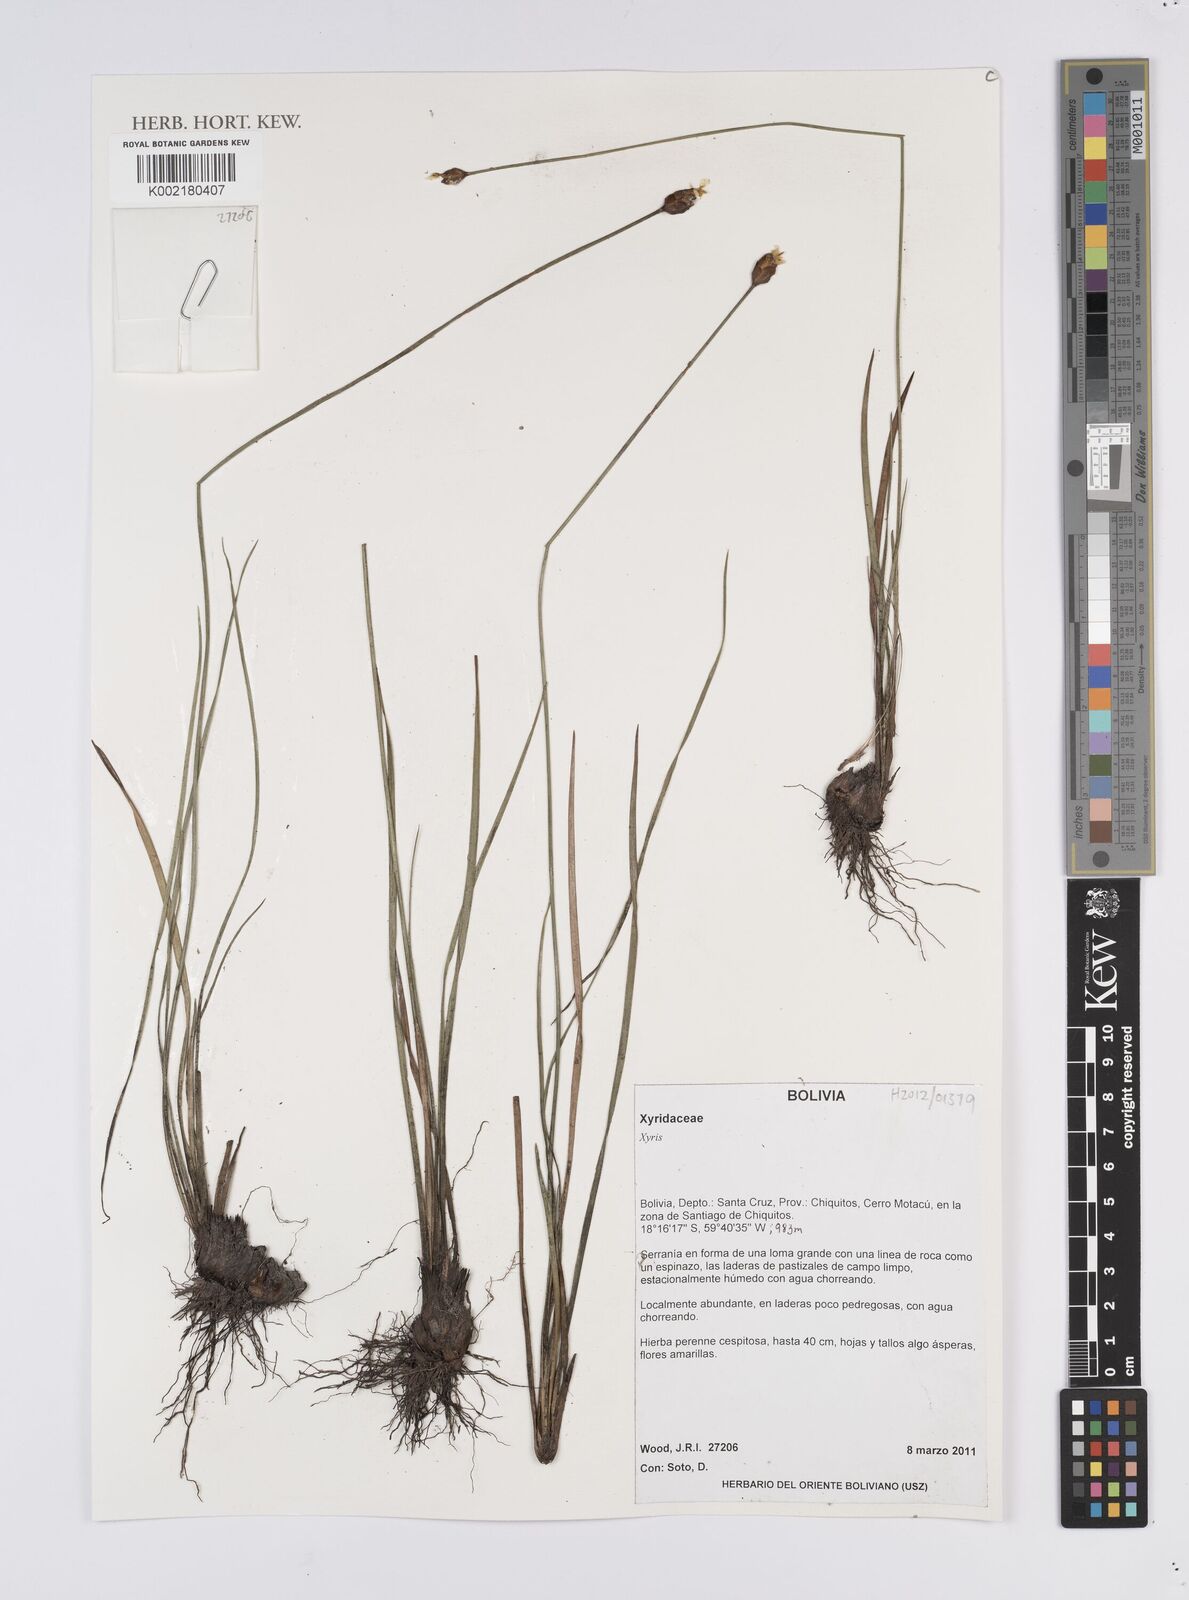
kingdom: Plantae
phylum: Tracheophyta
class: Liliopsida
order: Poales
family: Xyridaceae
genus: Xyris
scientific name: Xyris
